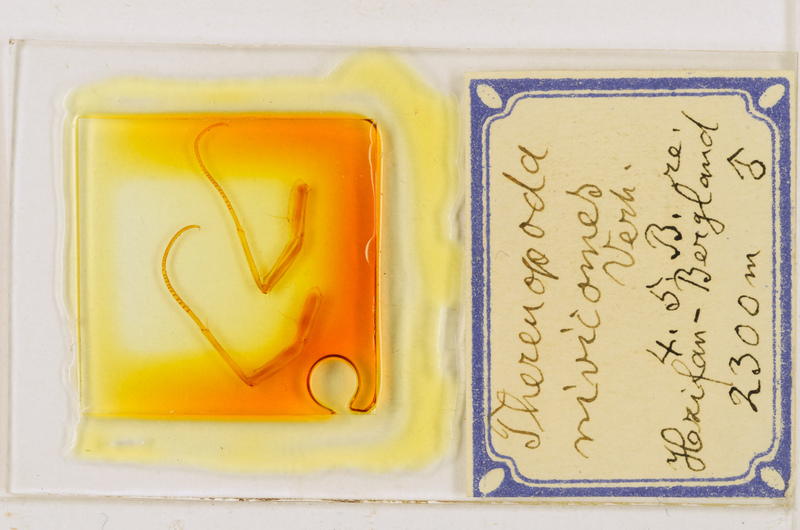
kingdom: Animalia
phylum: Arthropoda
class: Chilopoda
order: Scutigeromorpha
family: Scutigeridae
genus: Thereuopoda
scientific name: Thereuopoda longicornis
